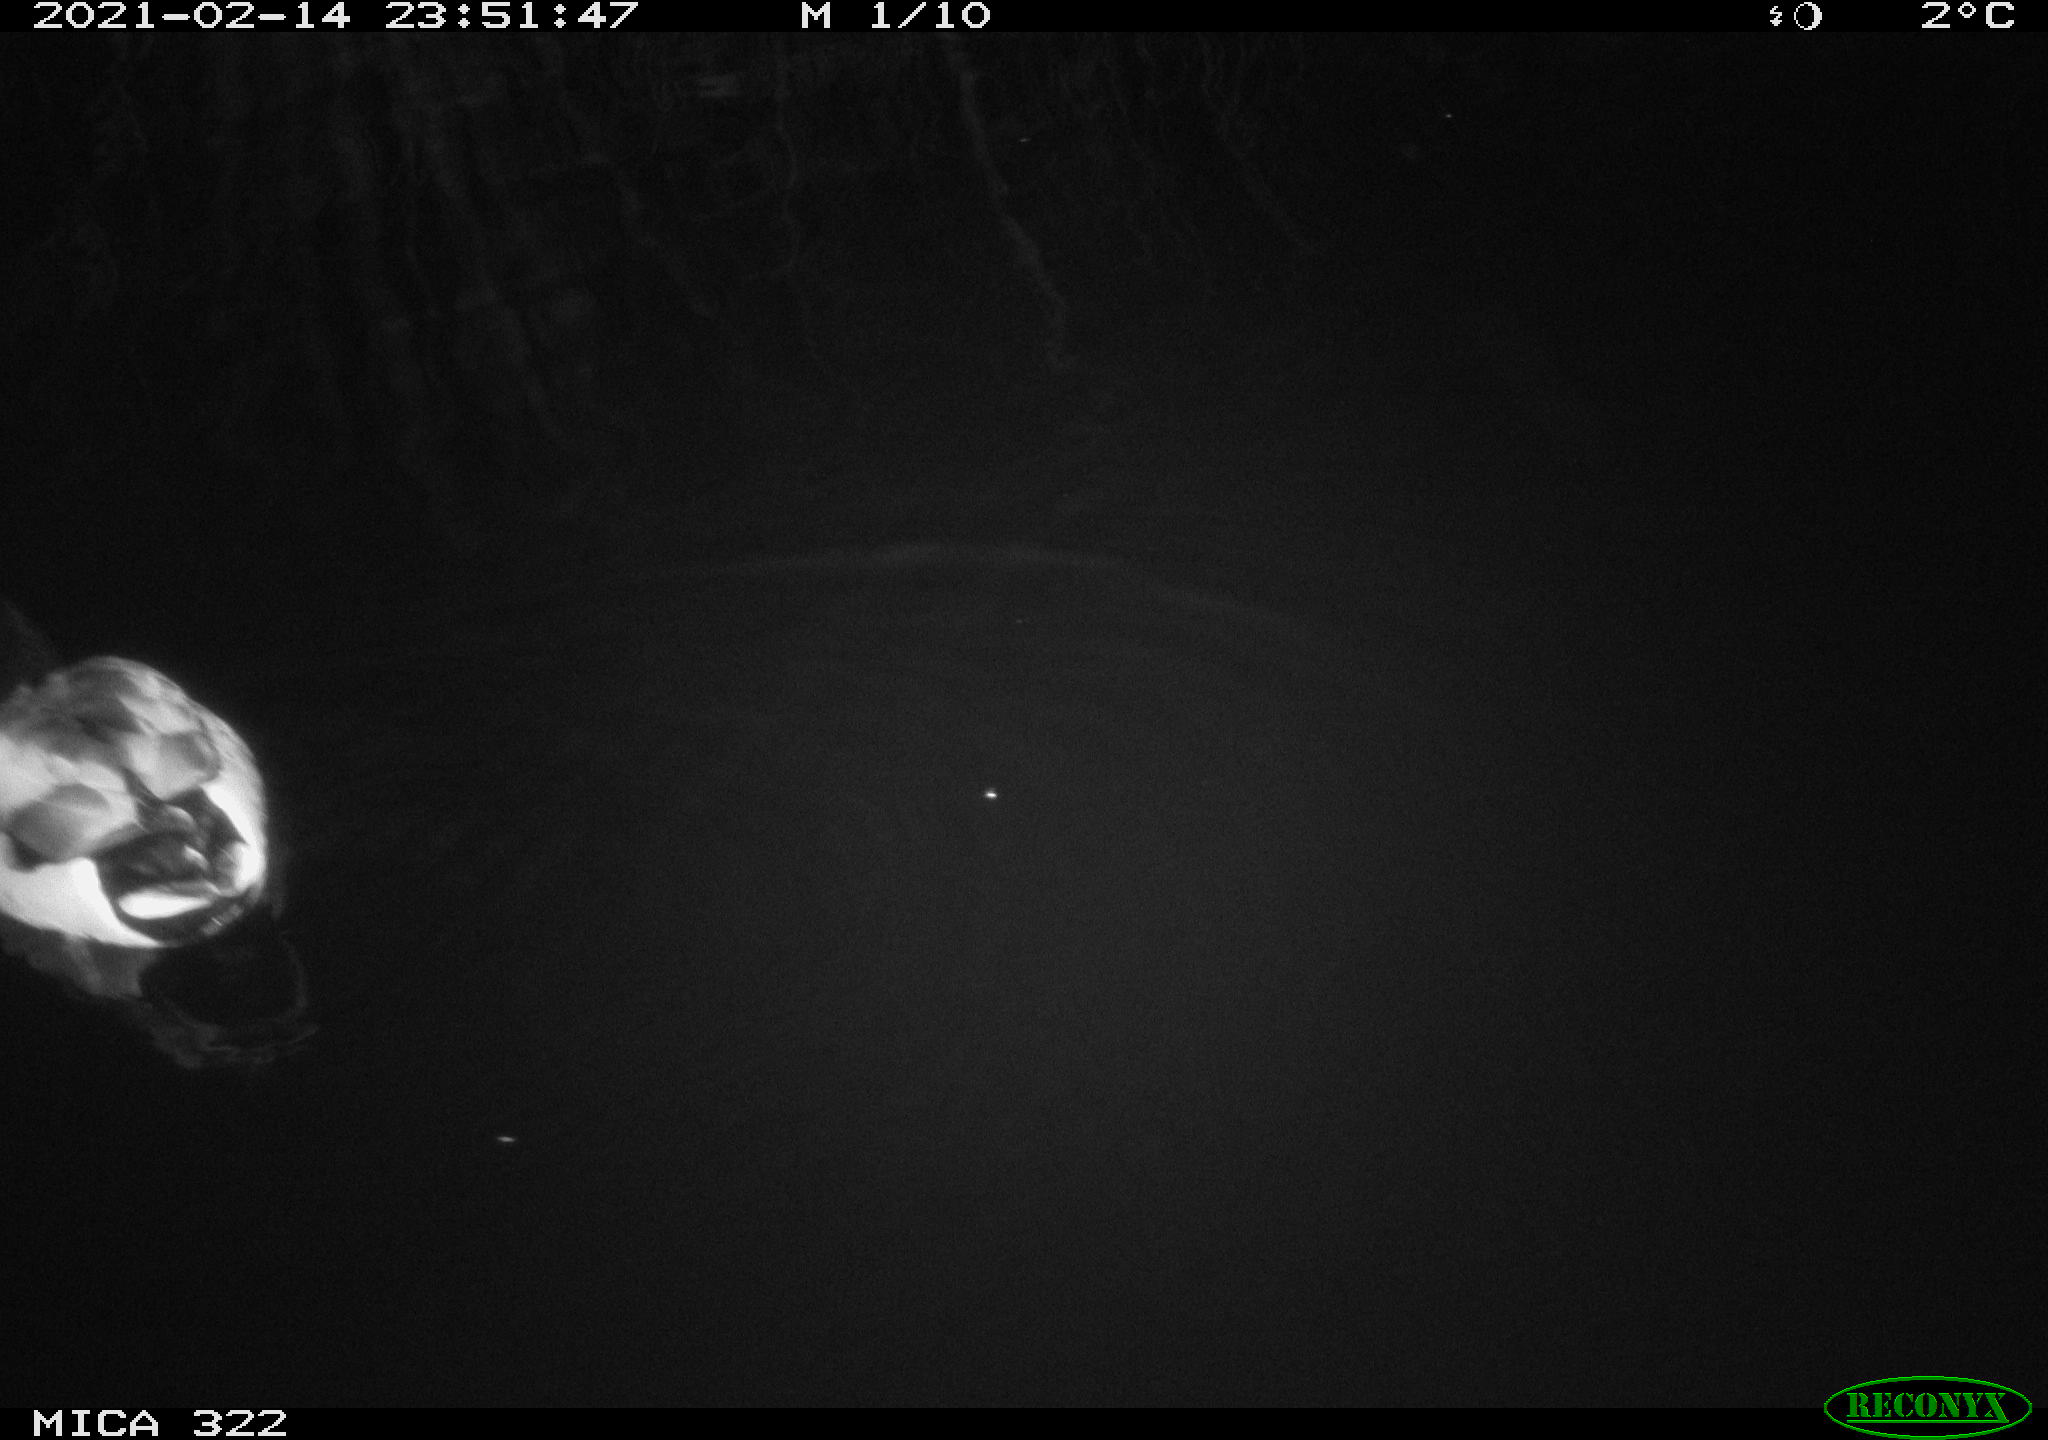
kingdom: Animalia
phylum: Chordata
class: Aves
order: Anseriformes
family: Anatidae
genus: Anas
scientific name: Anas platyrhynchos
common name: Mallard
